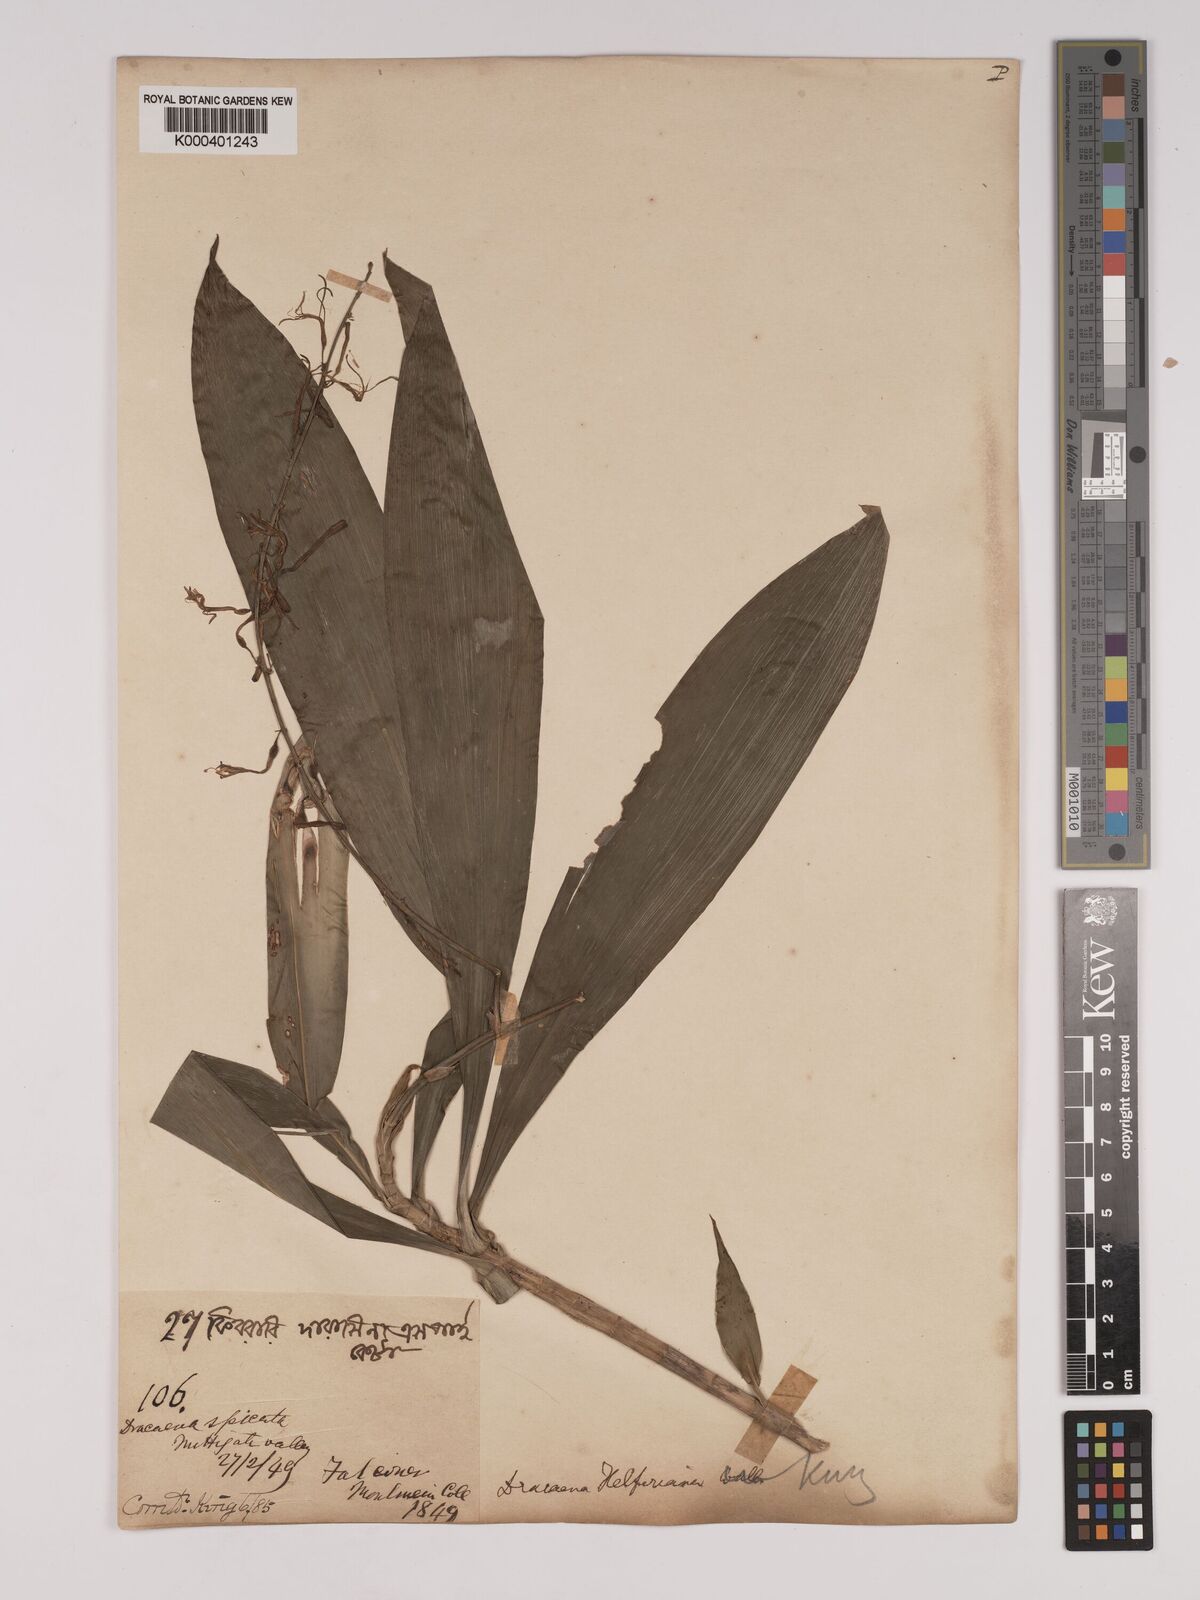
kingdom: Plantae
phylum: Tracheophyta
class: Liliopsida
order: Asparagales
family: Asparagaceae
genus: Dracaena
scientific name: Dracaena griffithii
